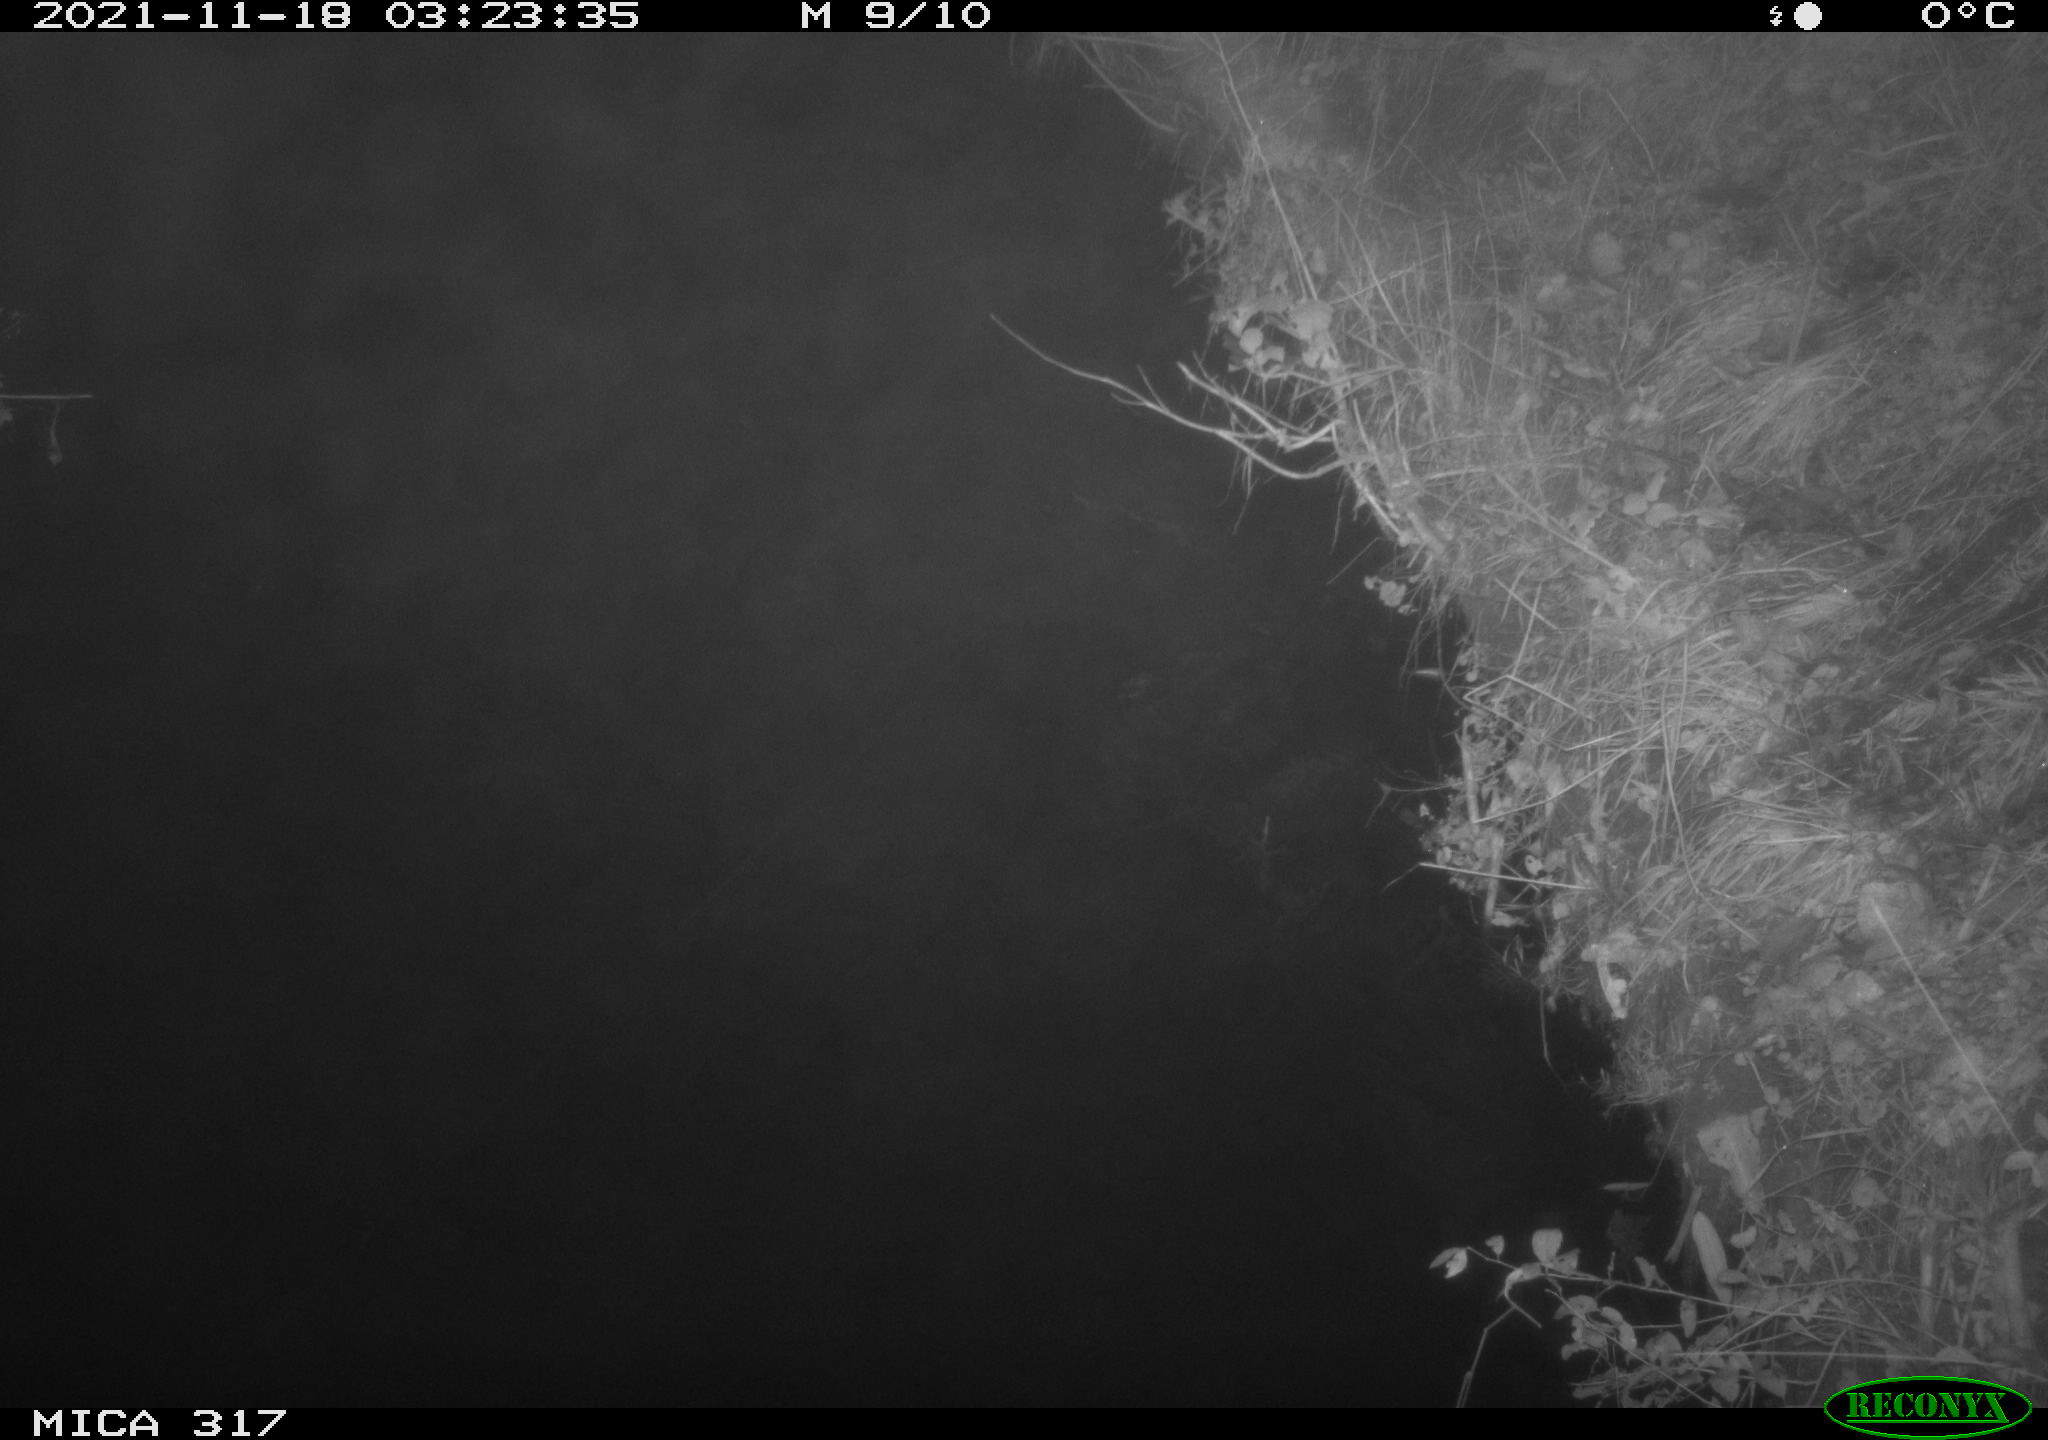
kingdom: Animalia
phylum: Chordata
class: Aves
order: Anseriformes
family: Anatidae
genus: Anas
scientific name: Anas platyrhynchos
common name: Mallard
